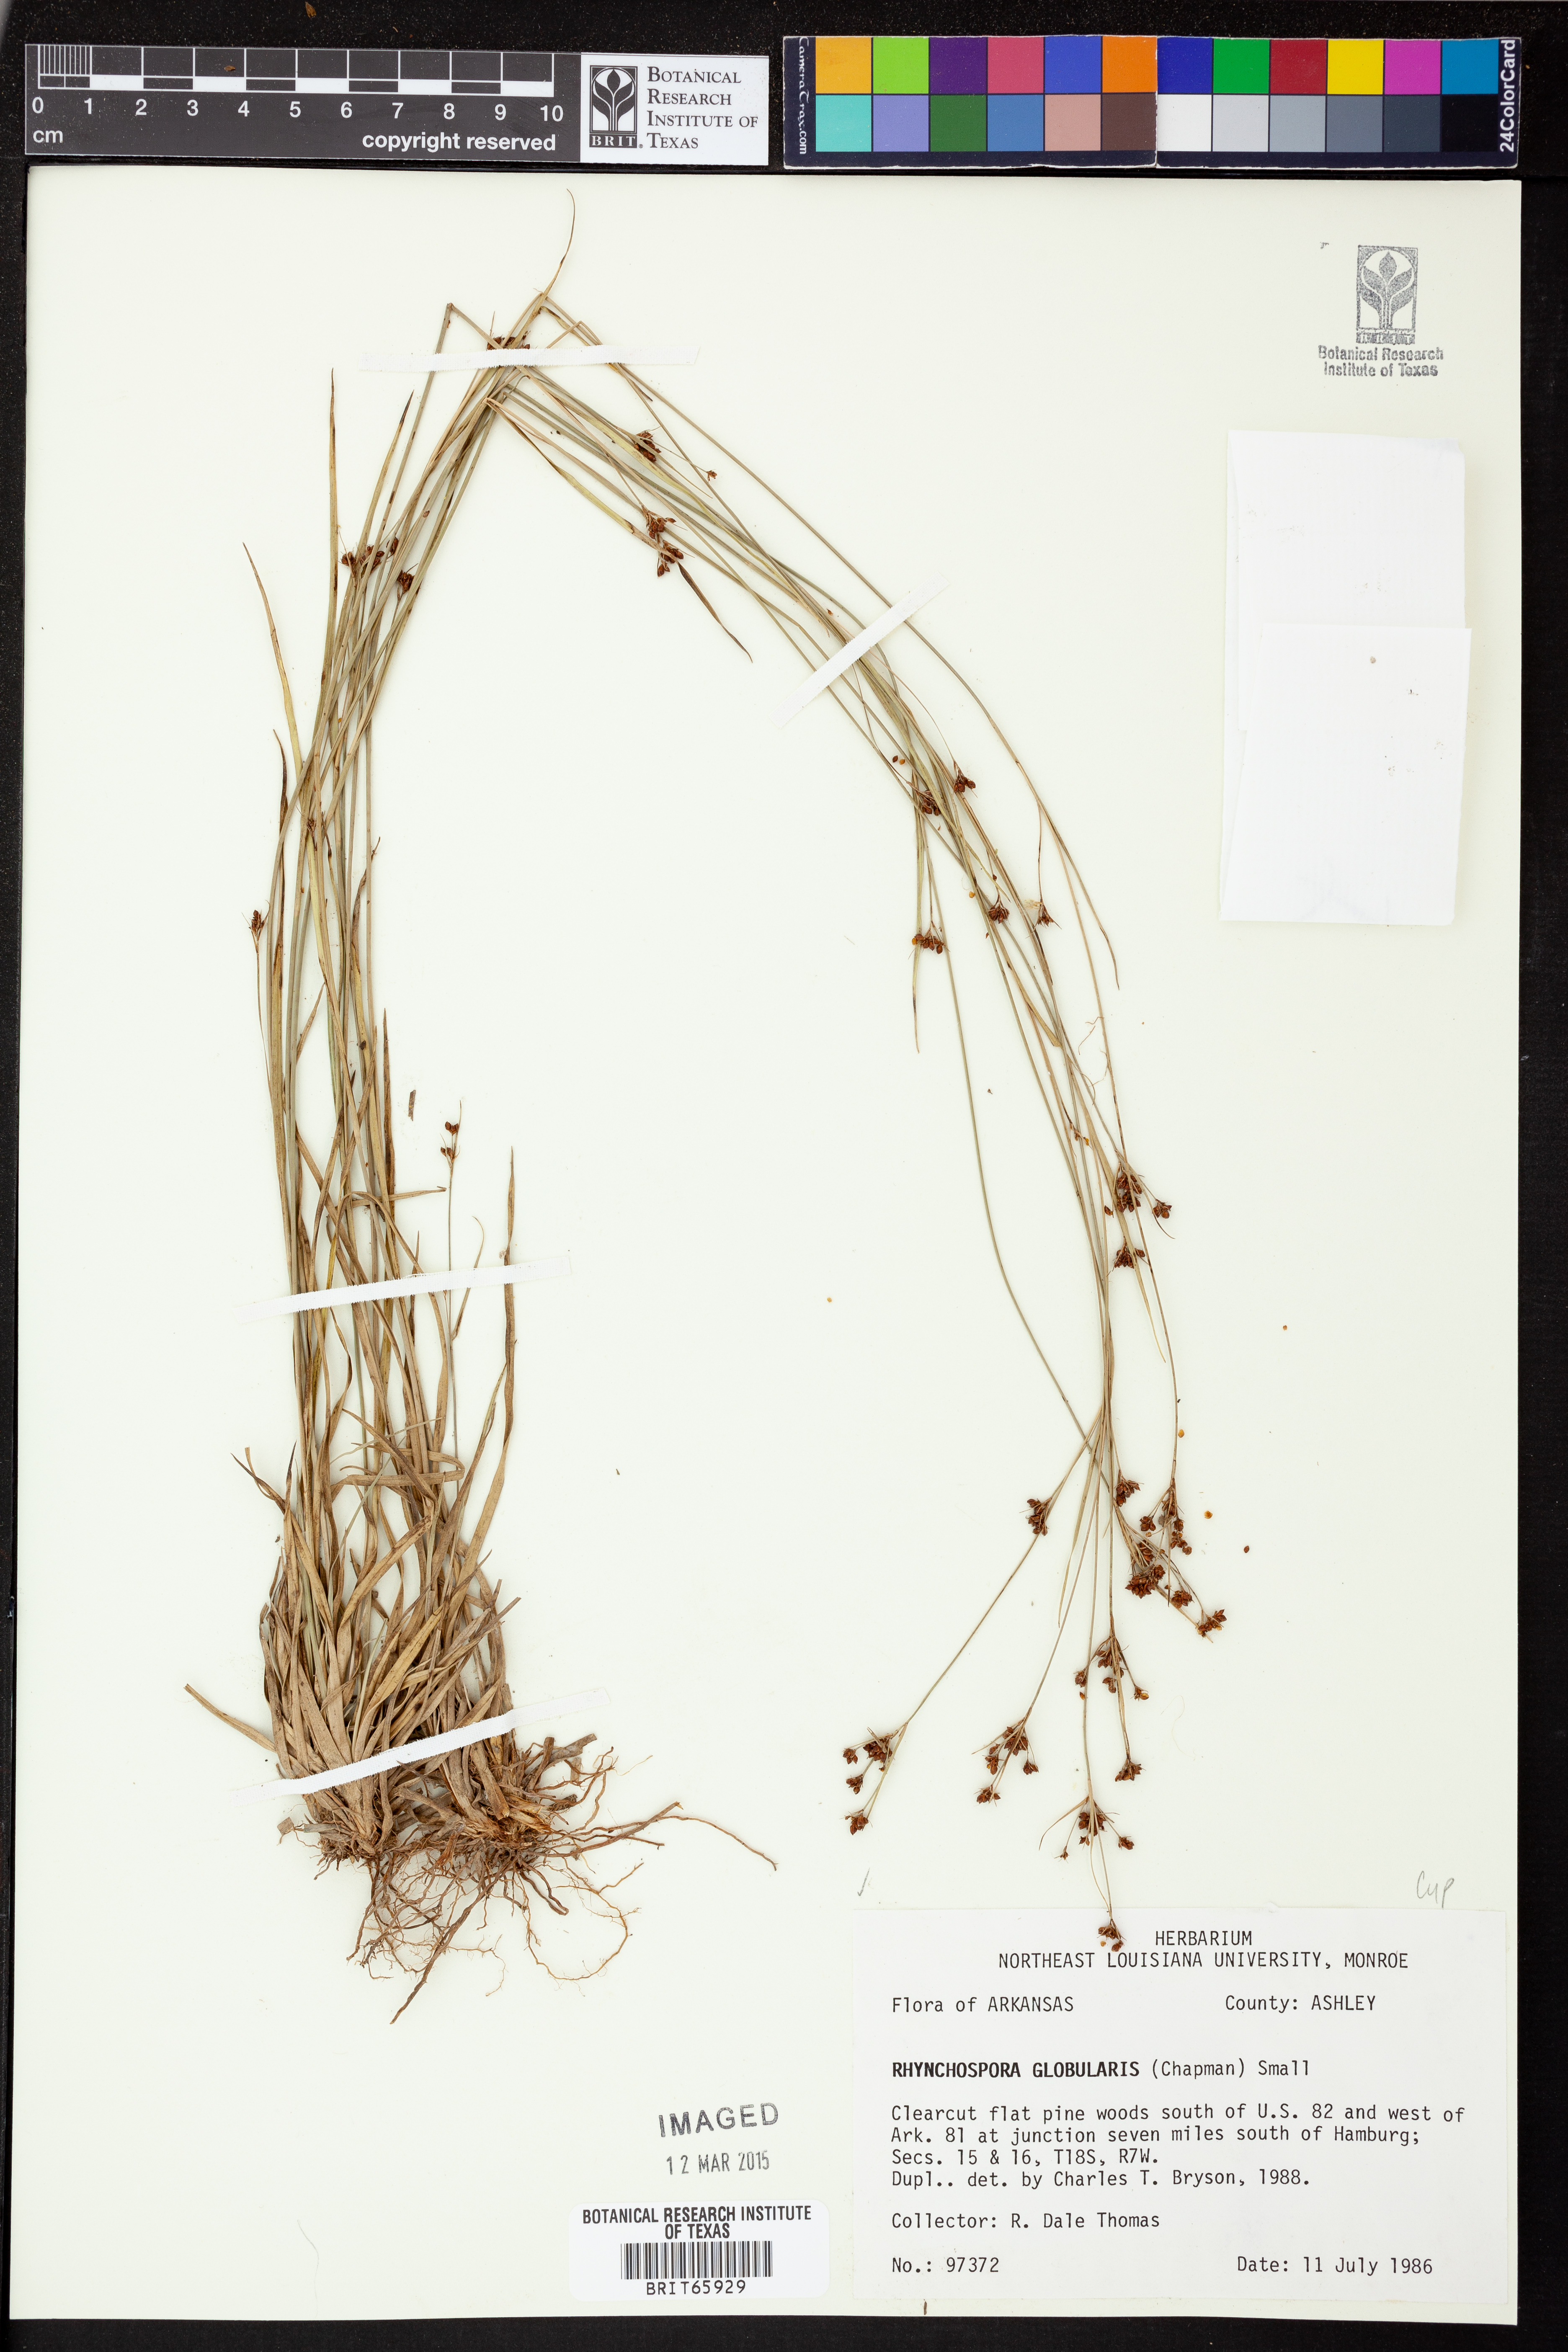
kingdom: Plantae
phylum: Tracheophyta
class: Liliopsida
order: Poales
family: Cyperaceae
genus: Rhynchospora
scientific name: Rhynchospora globularis
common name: Globe beaksedge
